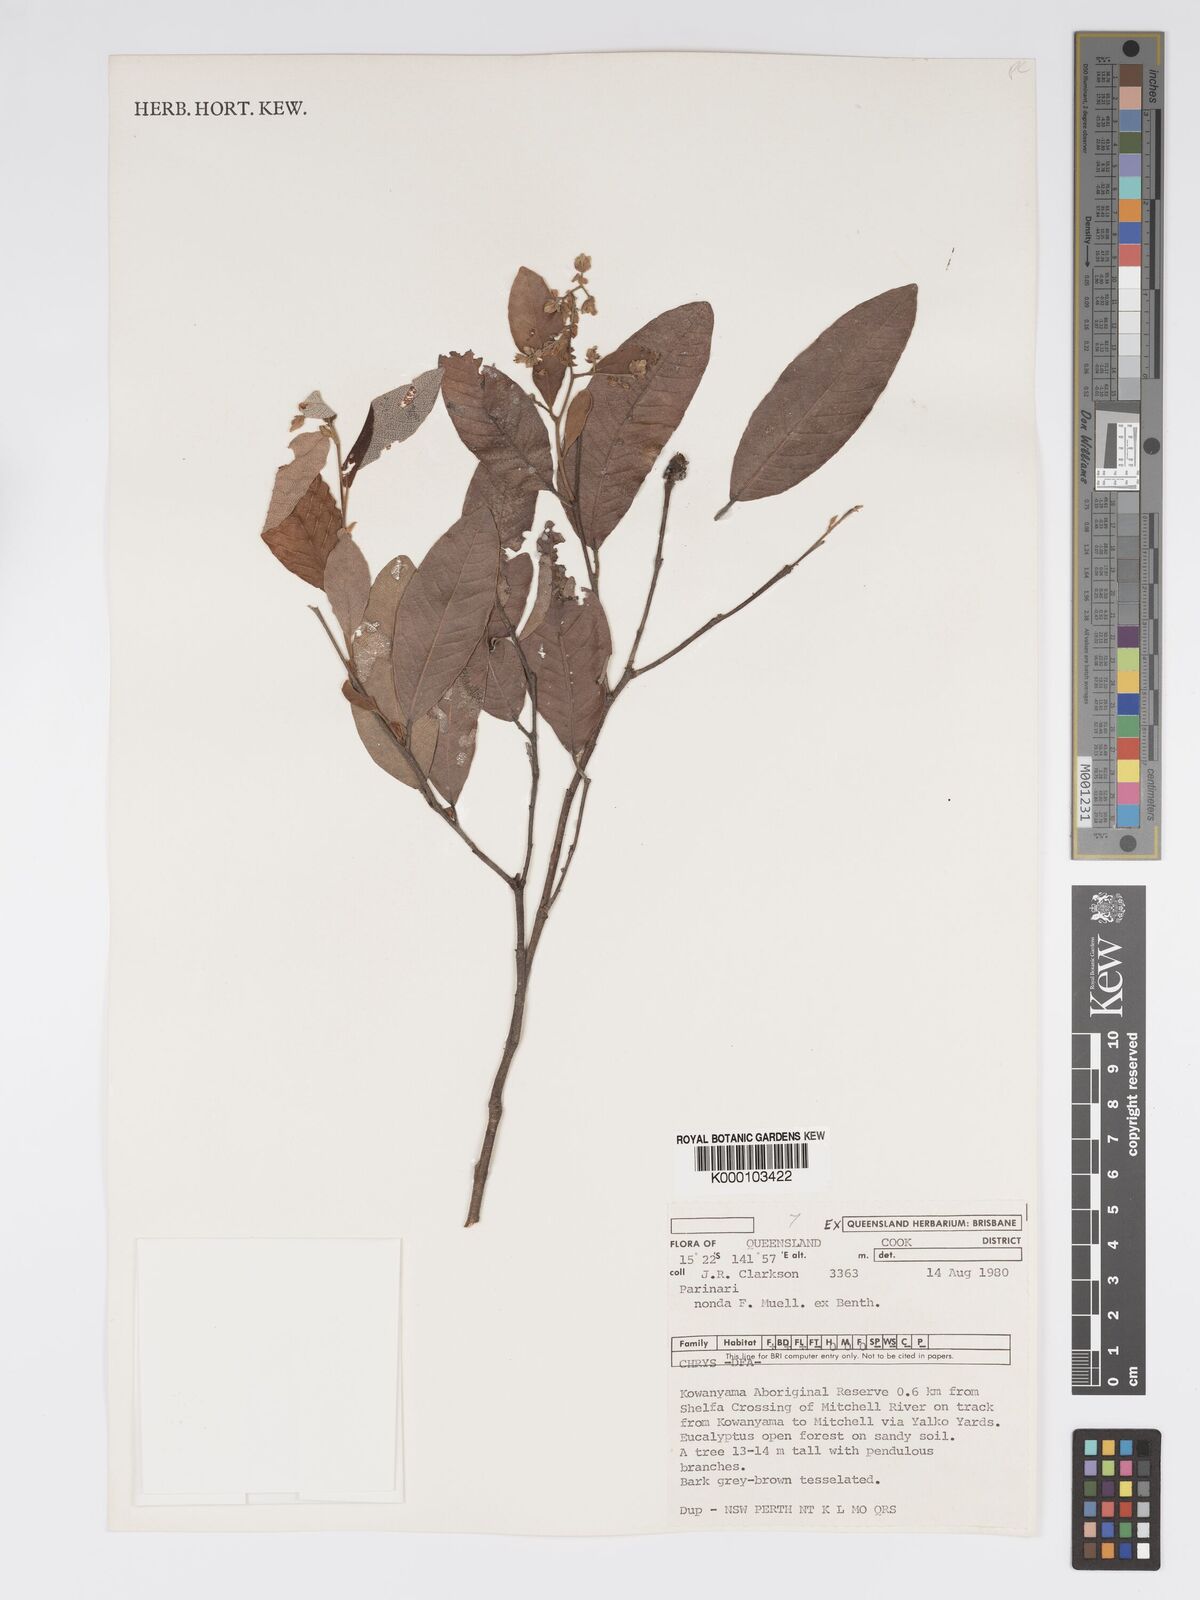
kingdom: Plantae
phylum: Tracheophyta
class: Magnoliopsida
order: Malpighiales
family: Chrysobalanaceae
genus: Parinari
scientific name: Parinari nonda
